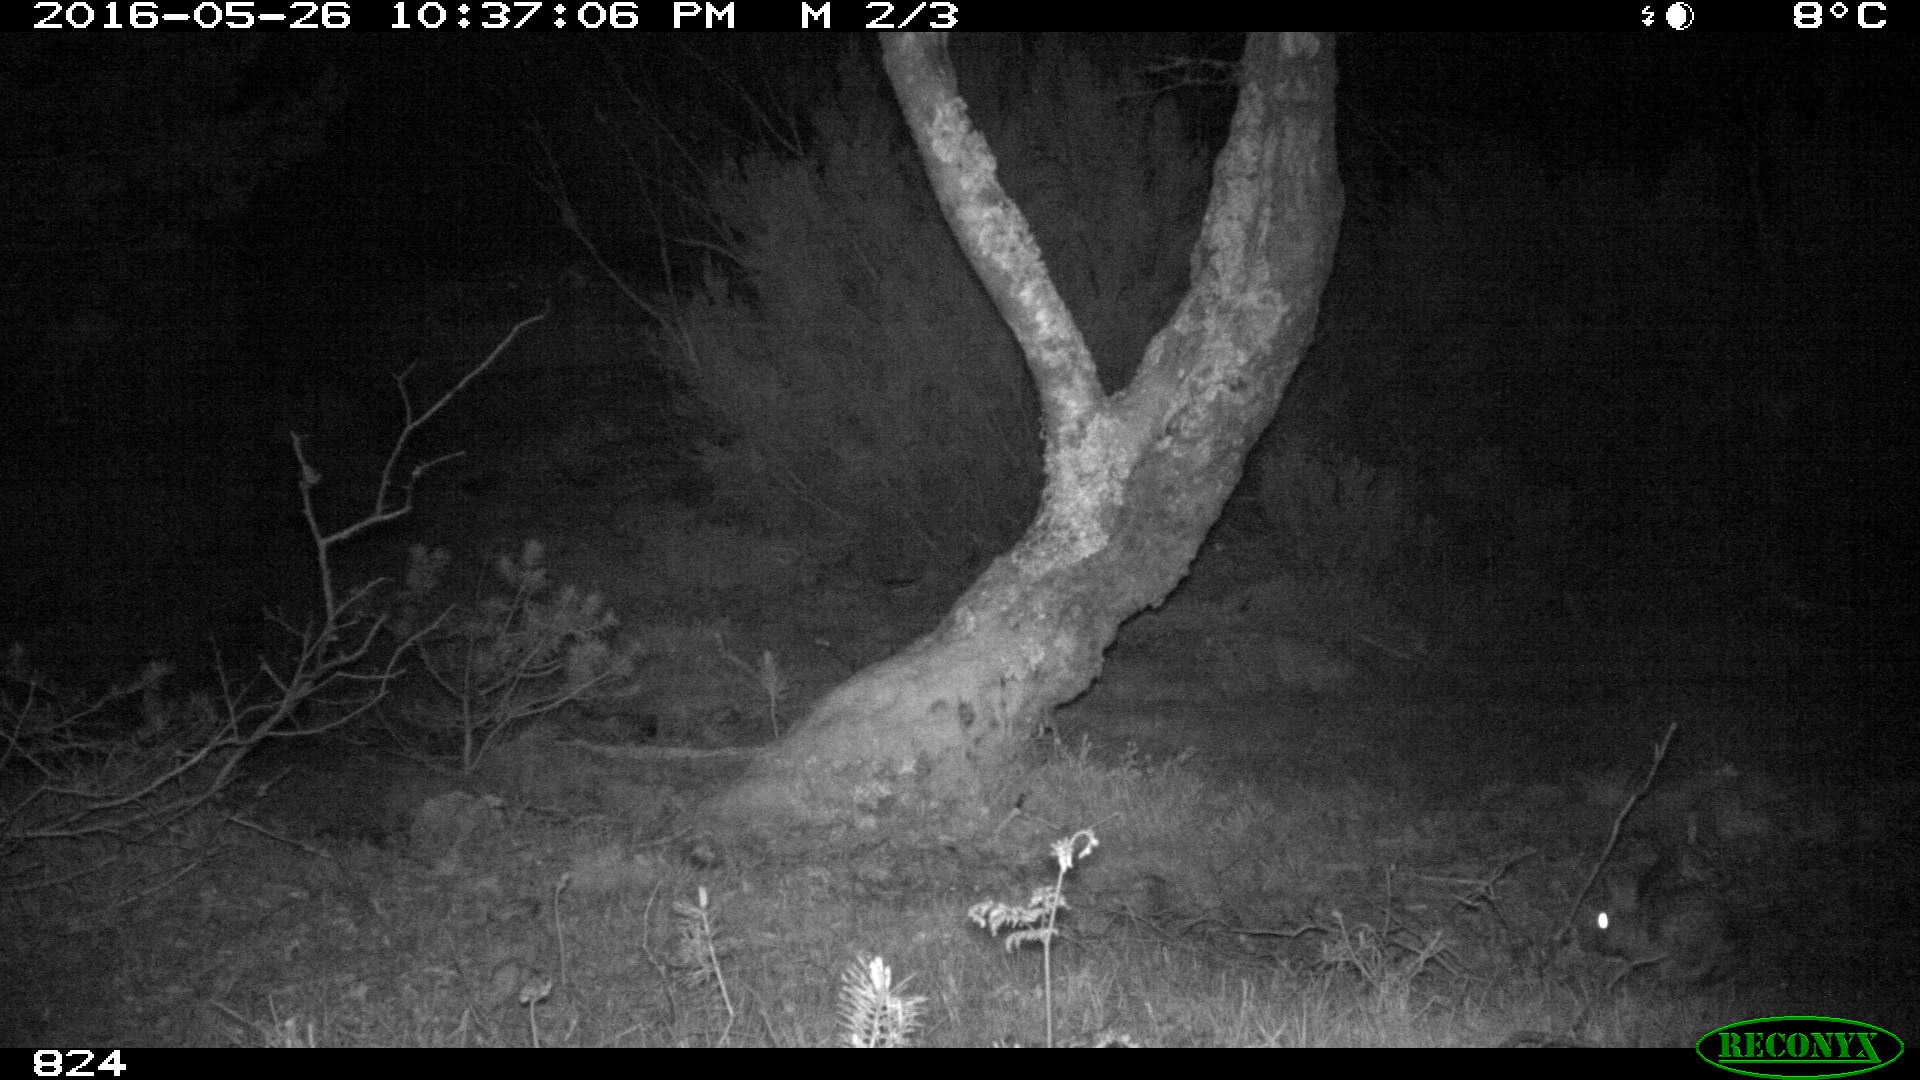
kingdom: Animalia
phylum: Chordata
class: Mammalia
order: Lagomorpha
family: Leporidae
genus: Oryctolagus
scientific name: Oryctolagus cuniculus
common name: European rabbit
